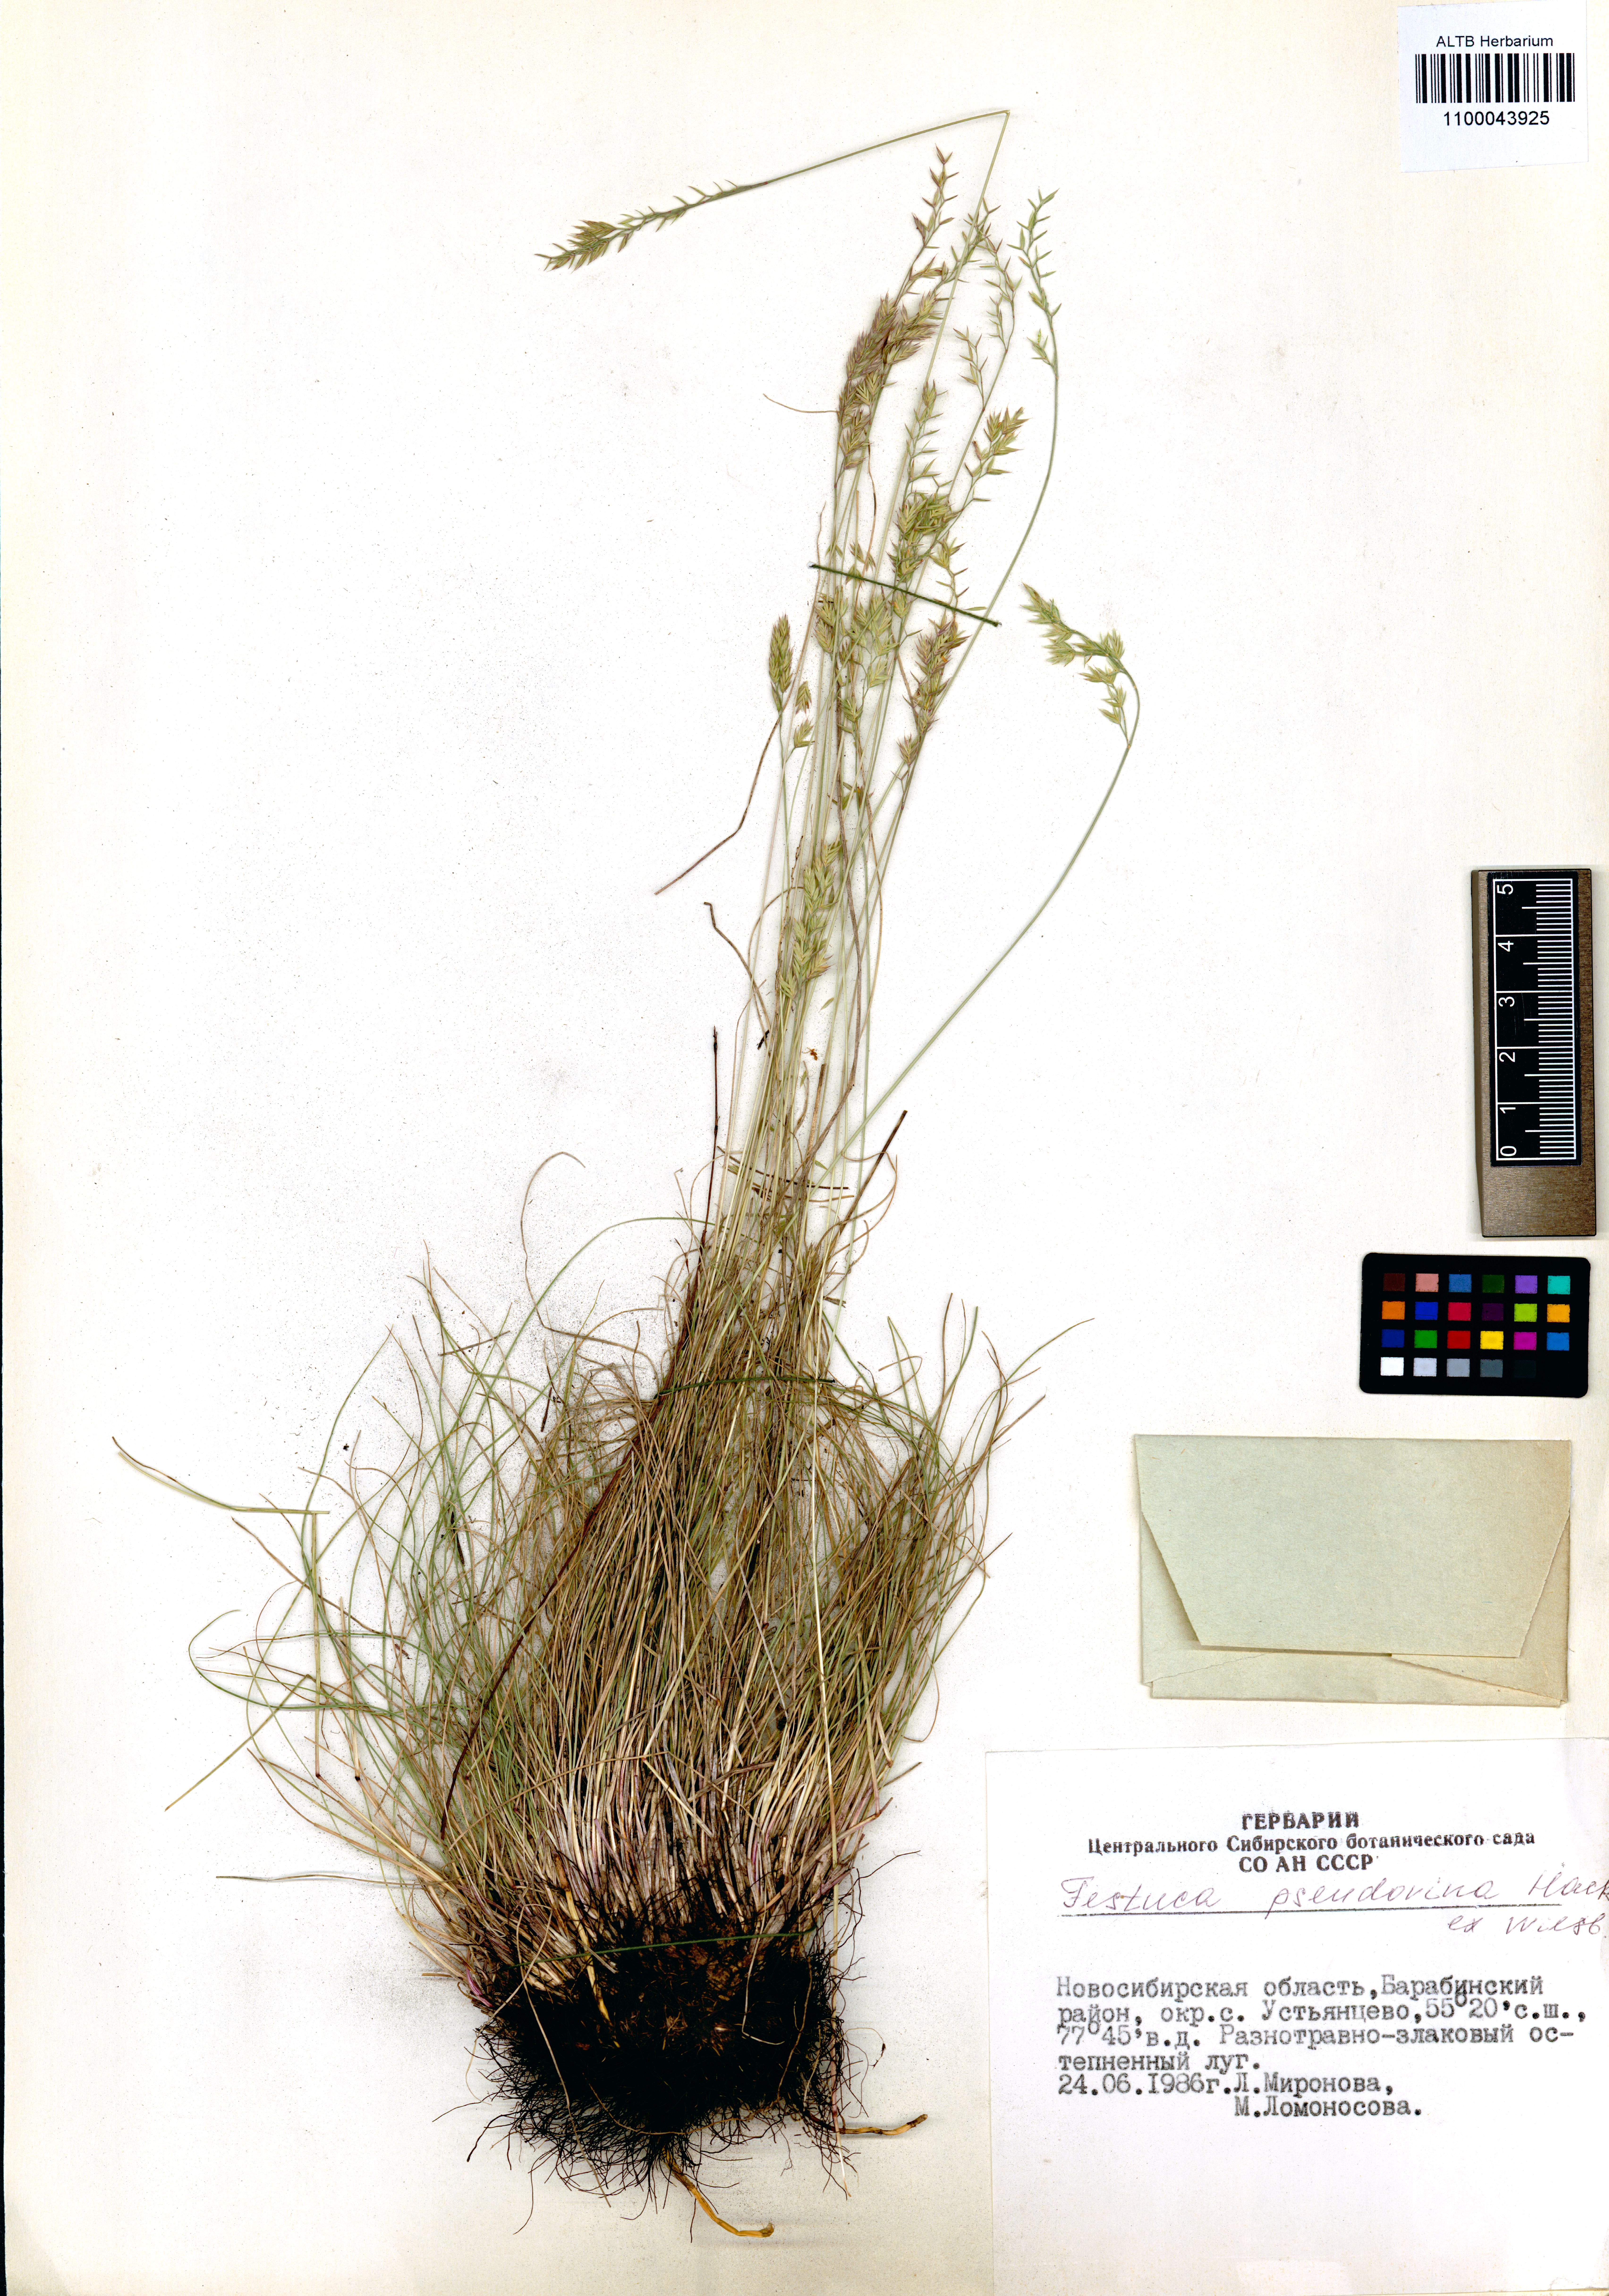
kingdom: Plantae
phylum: Tracheophyta
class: Liliopsida
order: Poales
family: Poaceae
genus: Festuca
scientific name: Festuca pulchra
